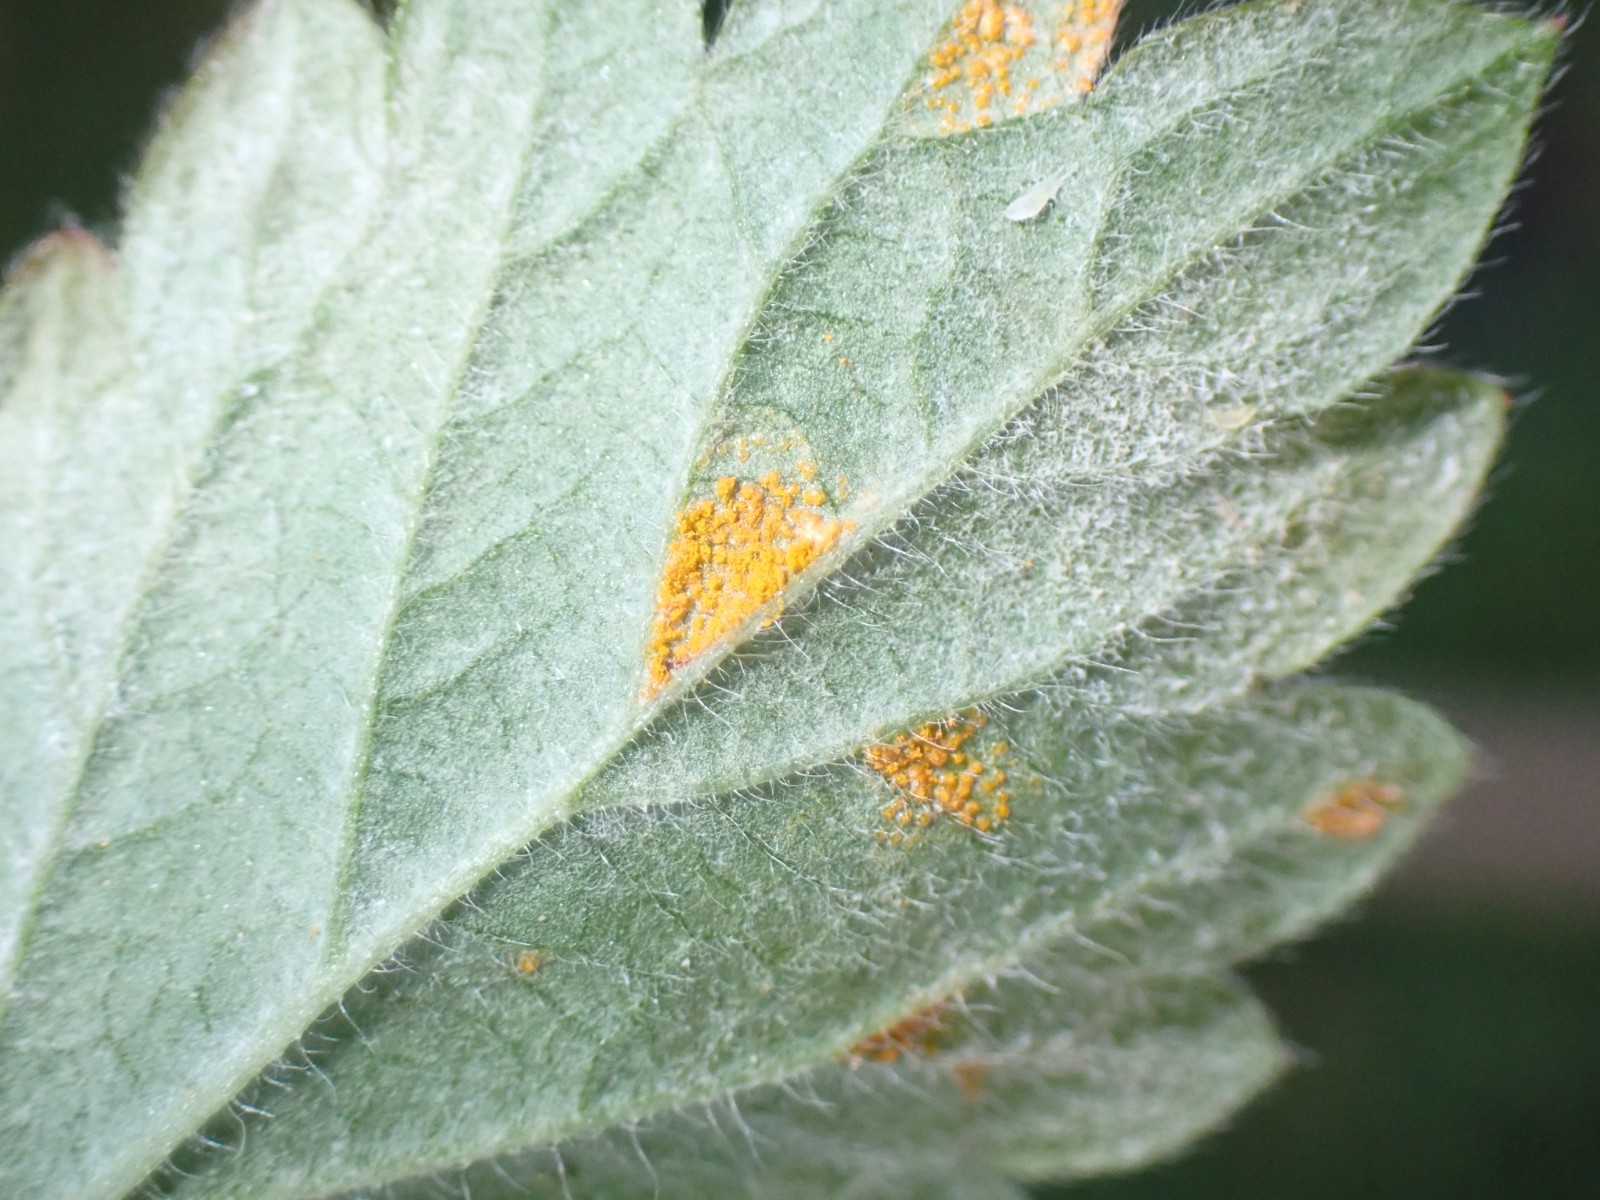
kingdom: Fungi
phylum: Basidiomycota
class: Pucciniomycetes
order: Pucciniales
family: Cronartiaceae
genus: Quasipucciniastrum
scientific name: Quasipucciniastrum ochraceum
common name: agermåne-nålerust
